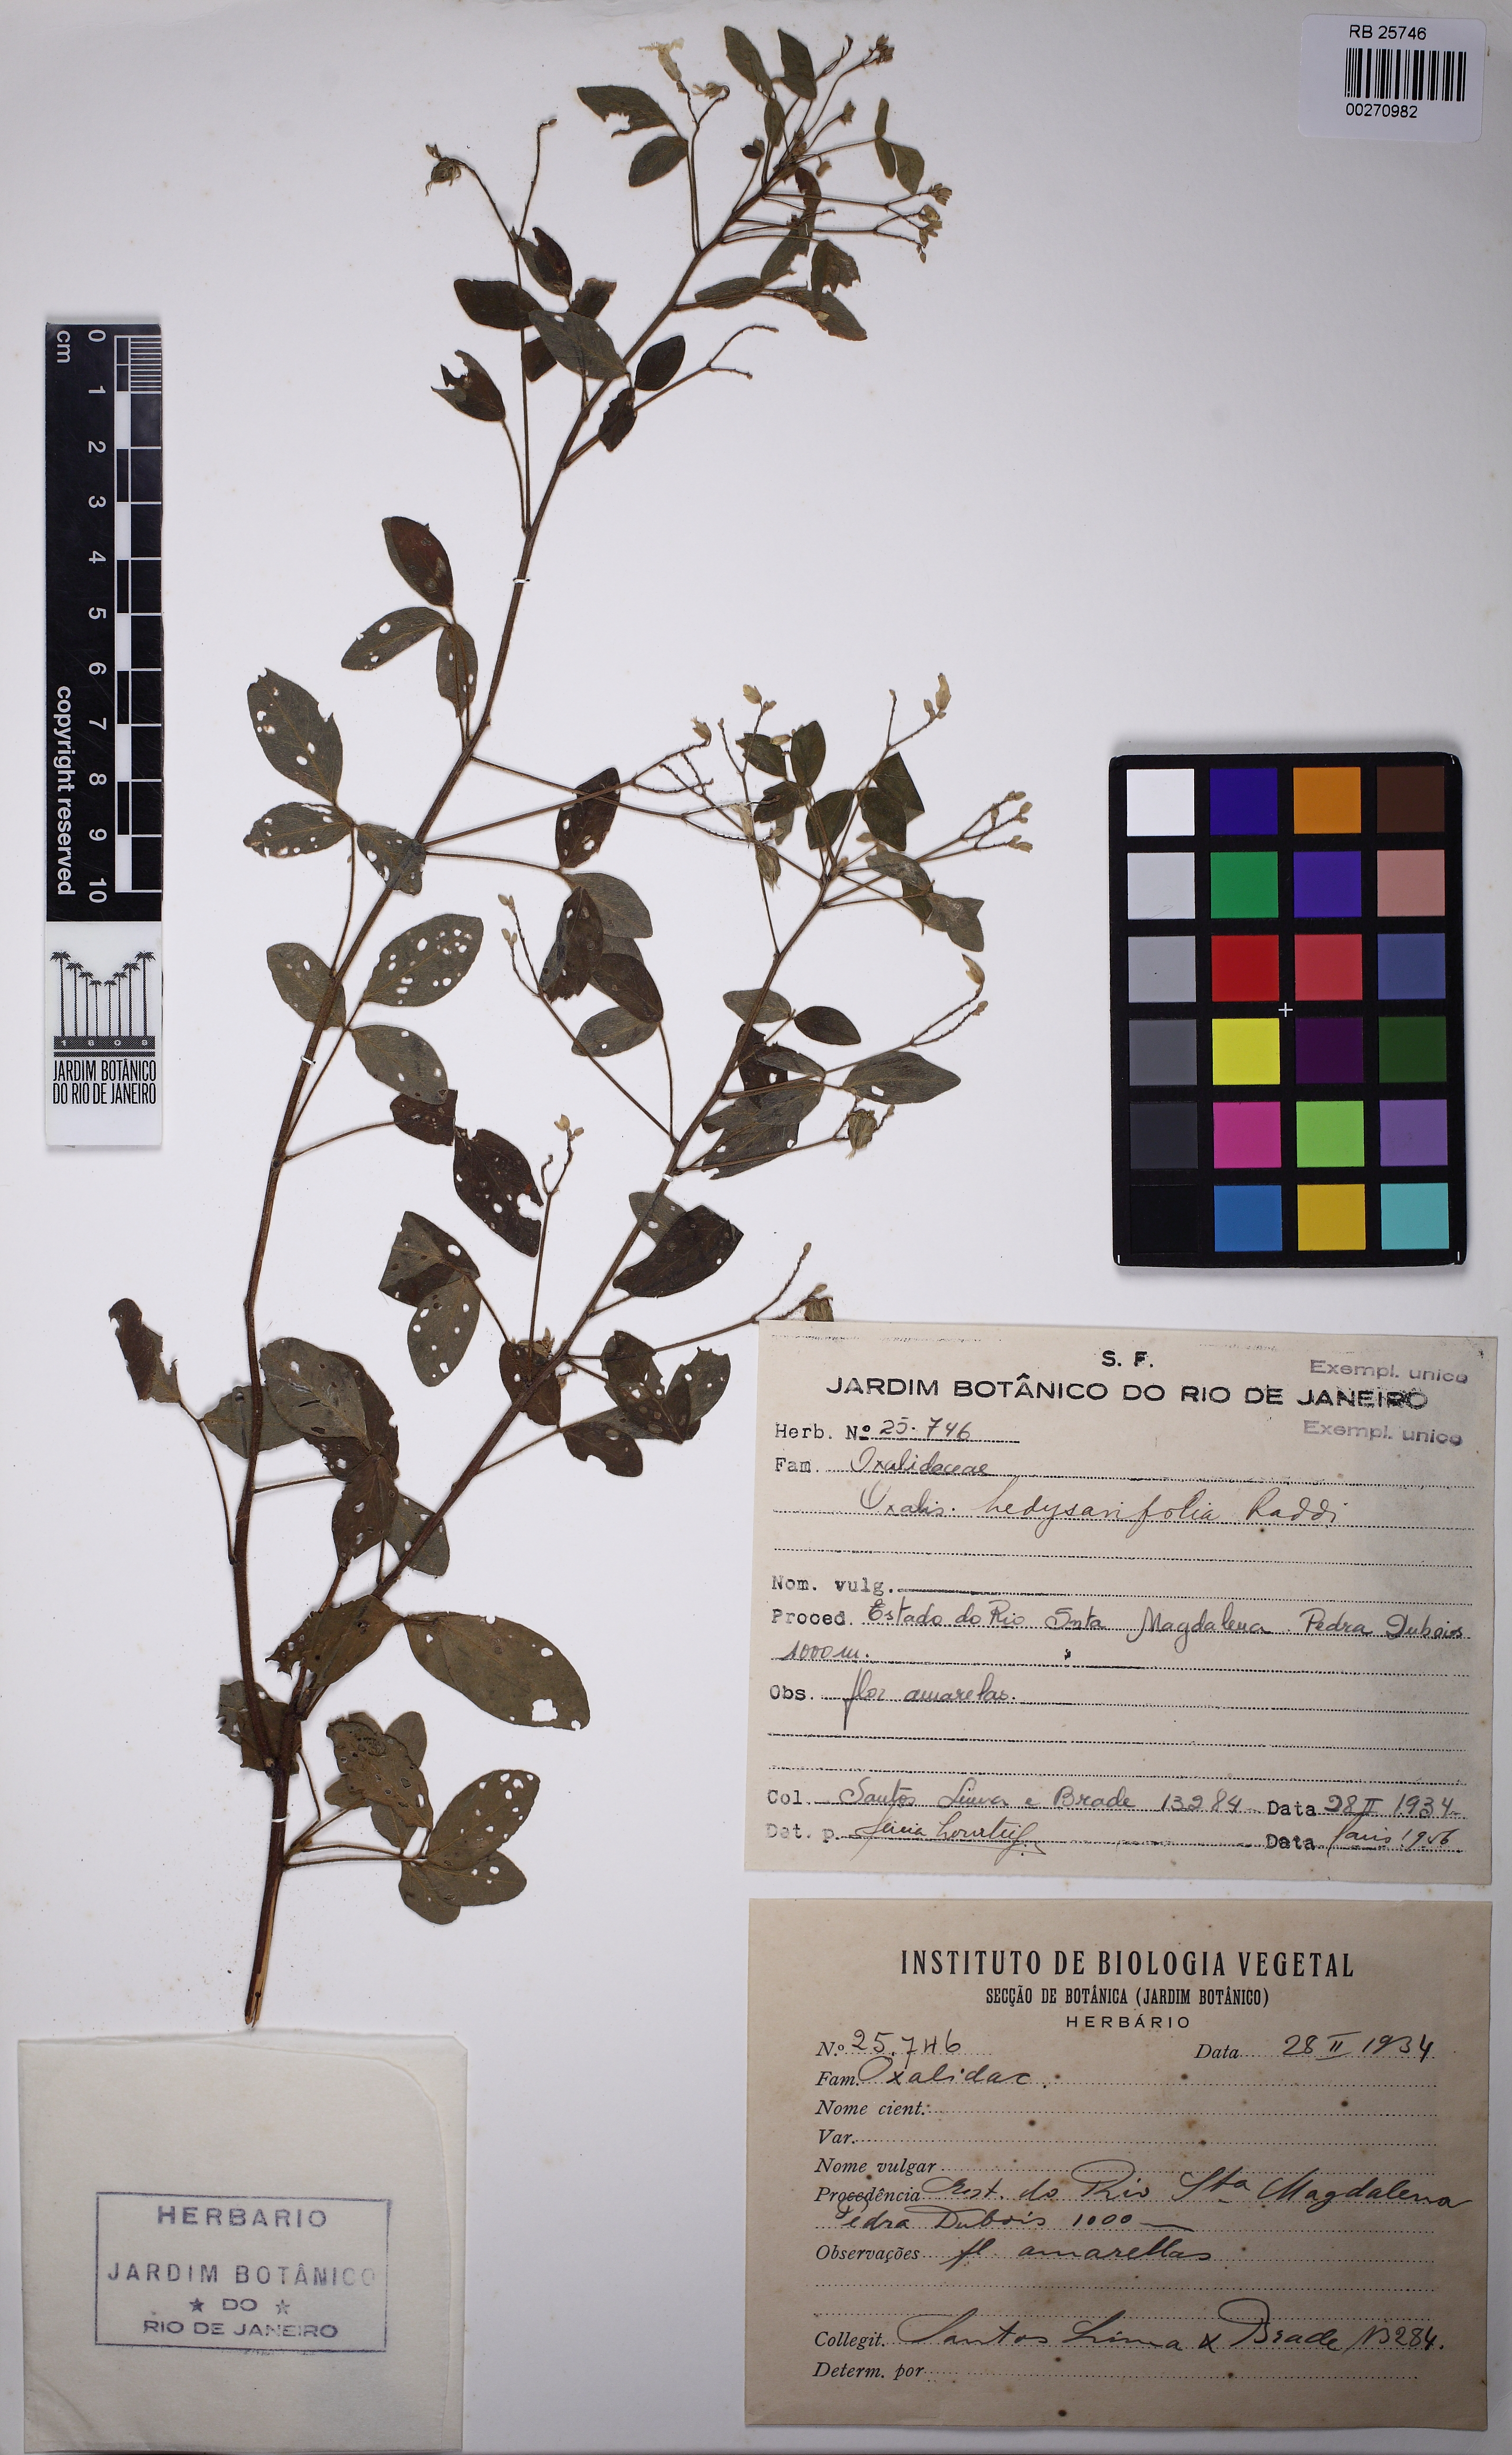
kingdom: Plantae
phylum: Tracheophyta
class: Magnoliopsida
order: Oxalidales
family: Oxalidaceae
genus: Oxalis
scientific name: Oxalis frutescens
